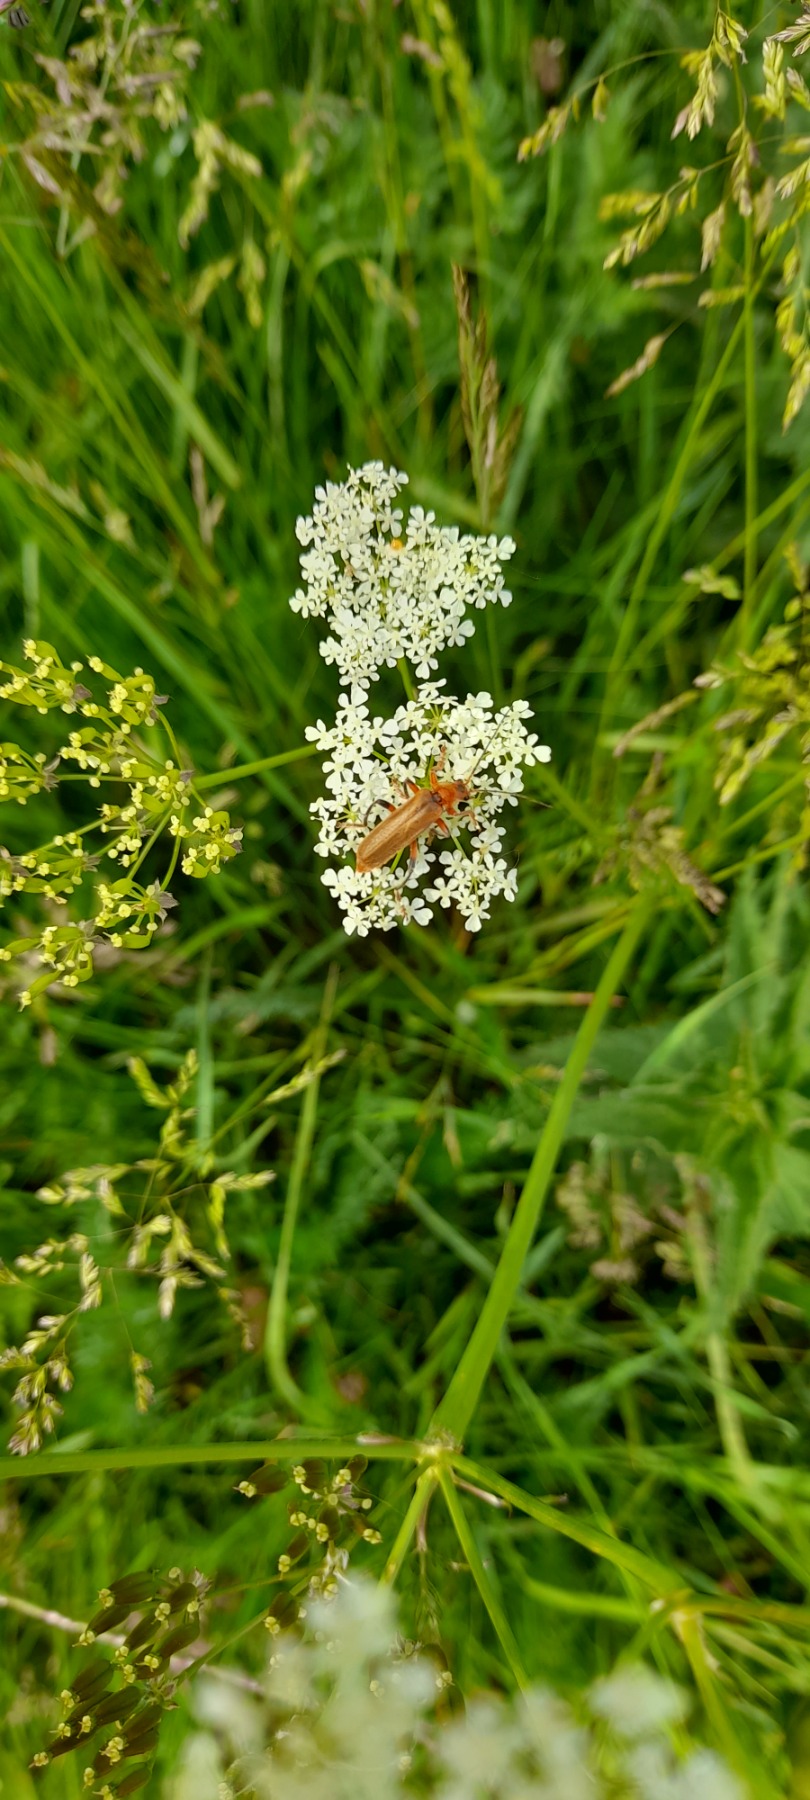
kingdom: Animalia
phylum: Arthropoda
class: Insecta
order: Coleoptera
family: Cantharidae
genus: Cantharis
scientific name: Cantharis livida
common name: Gul blødvinge
